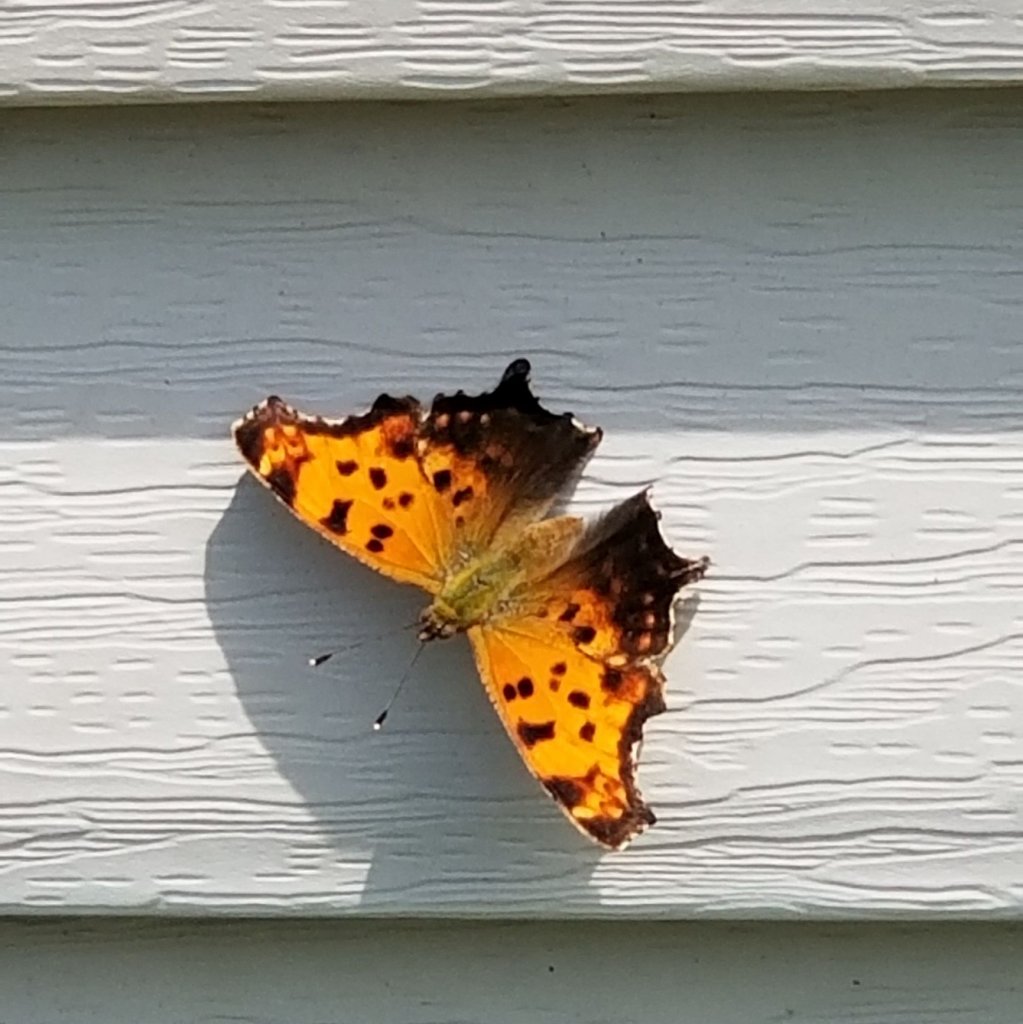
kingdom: Animalia
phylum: Arthropoda
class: Insecta
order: Lepidoptera
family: Nymphalidae
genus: Polygonia
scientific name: Polygonia interrogationis
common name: Question Mark
